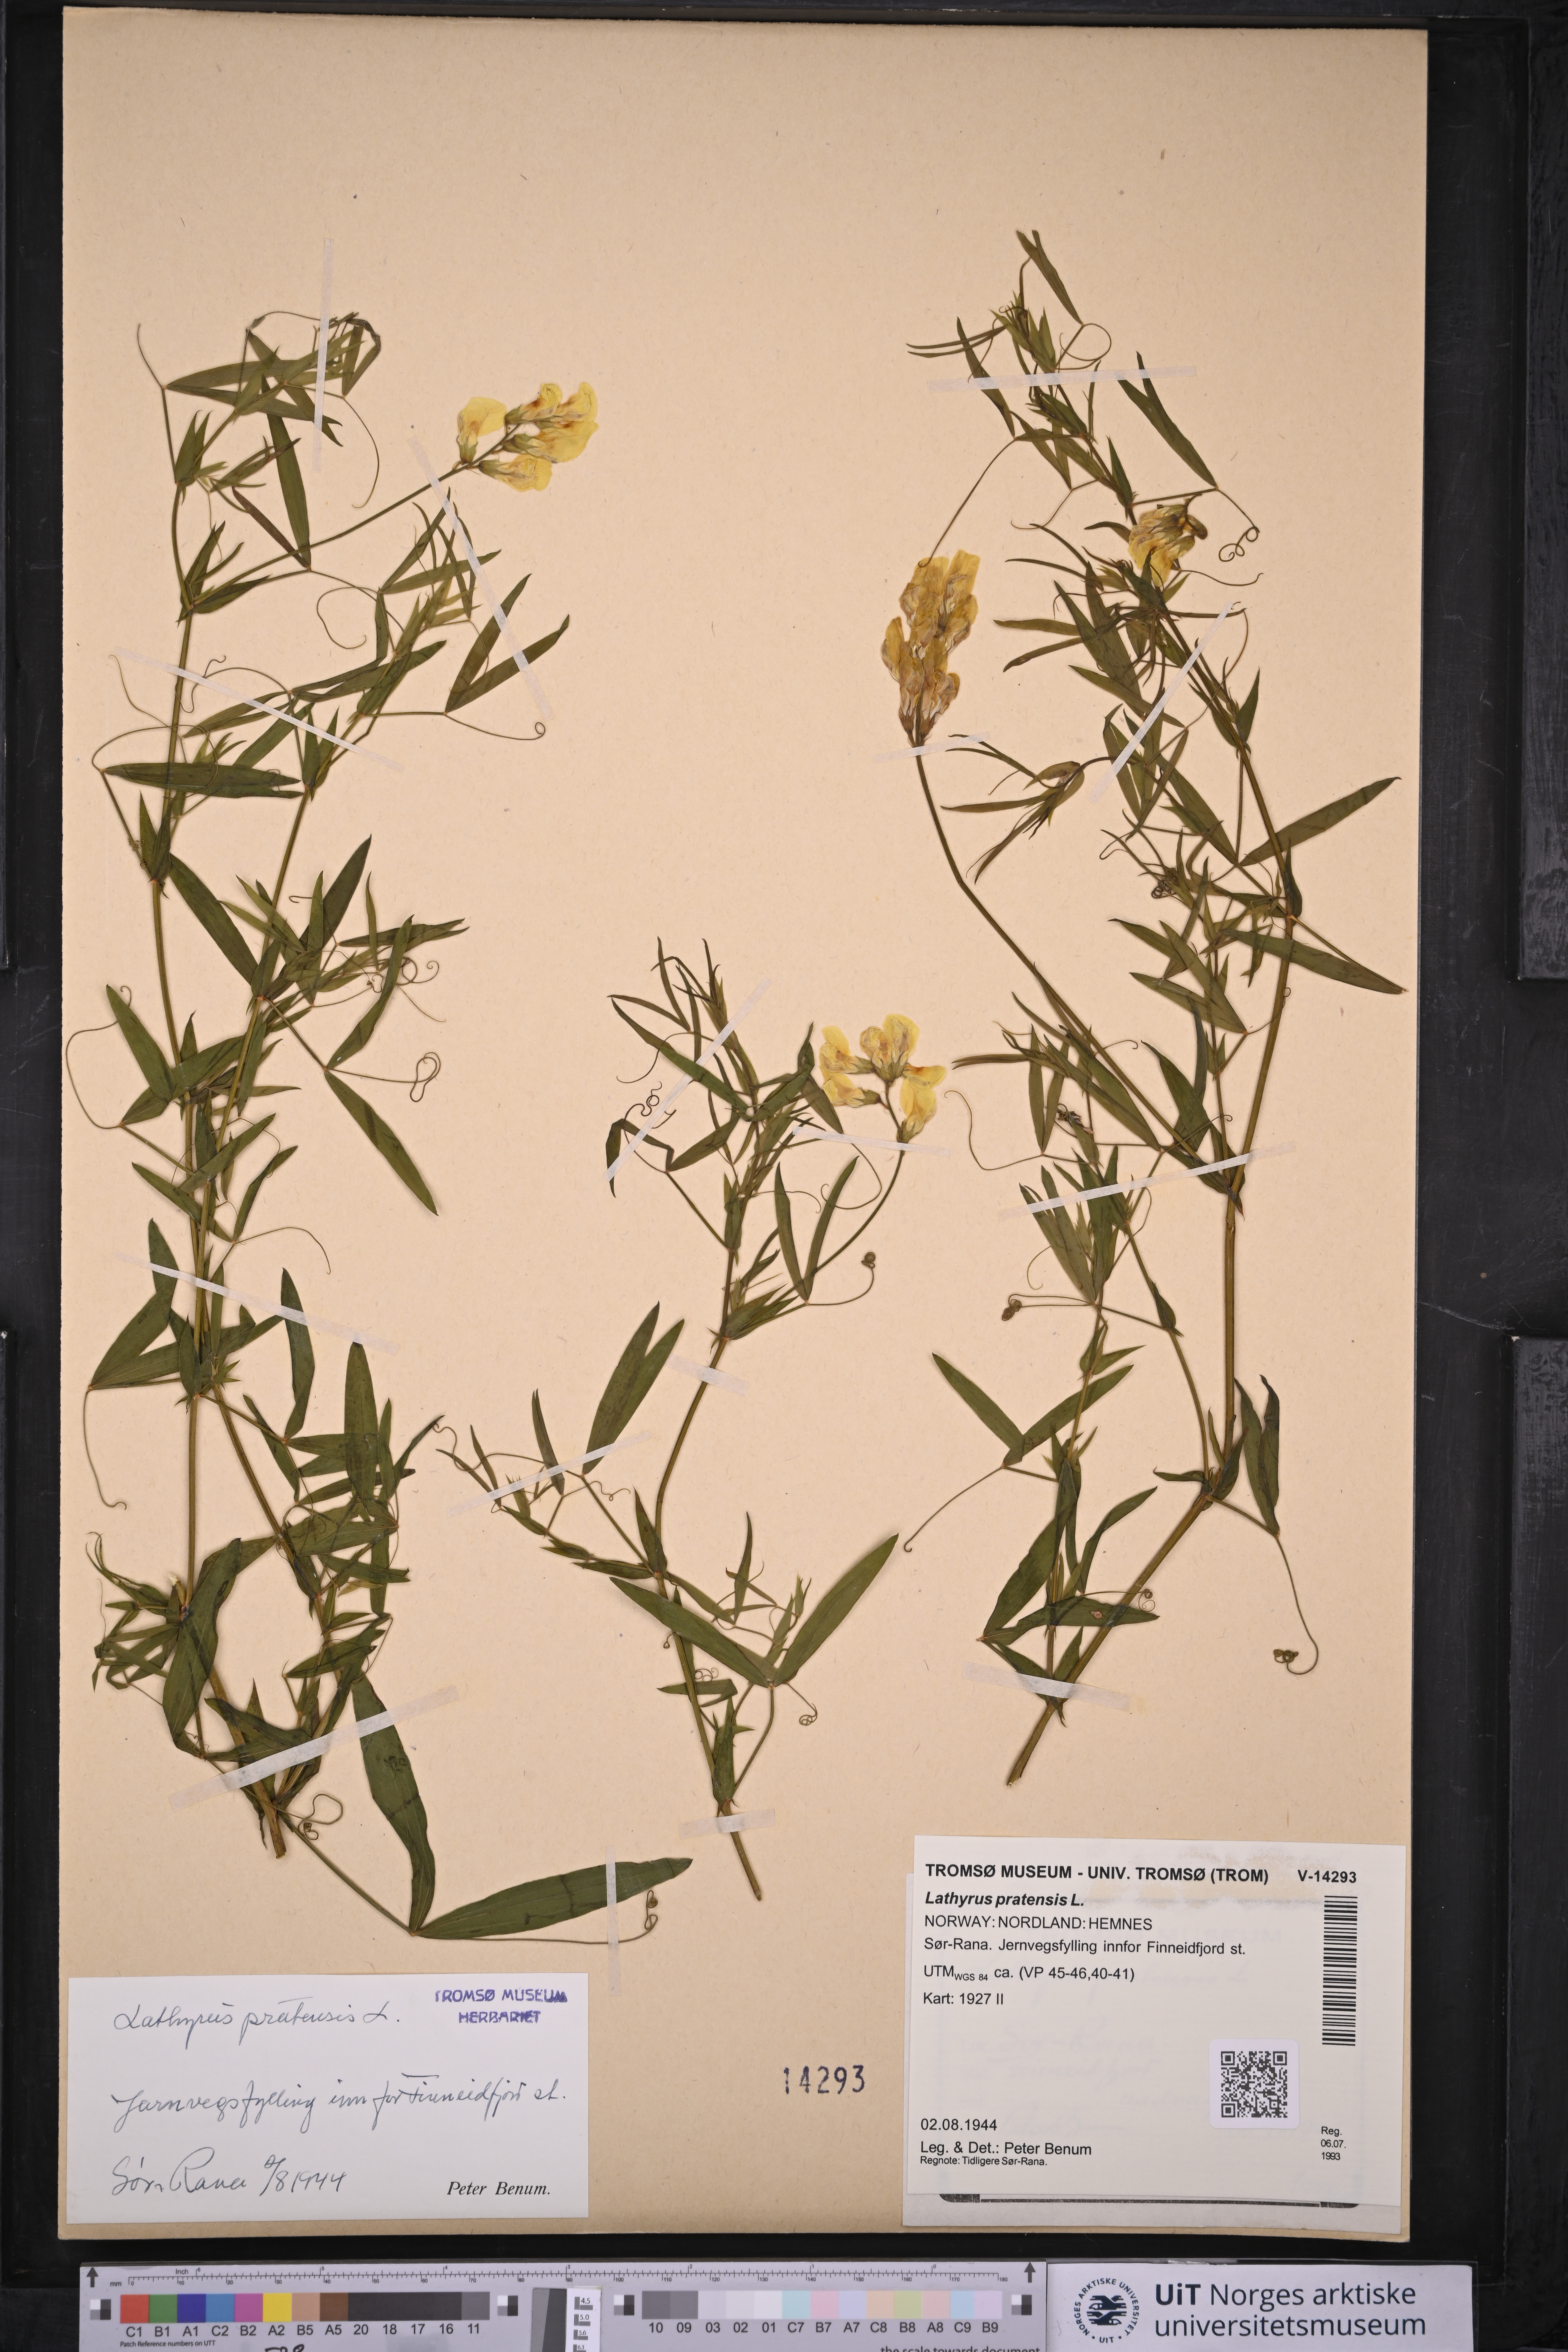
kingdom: Plantae
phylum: Tracheophyta
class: Magnoliopsida
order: Fabales
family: Fabaceae
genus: Lathyrus
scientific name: Lathyrus pratensis
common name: Meadow vetchling
